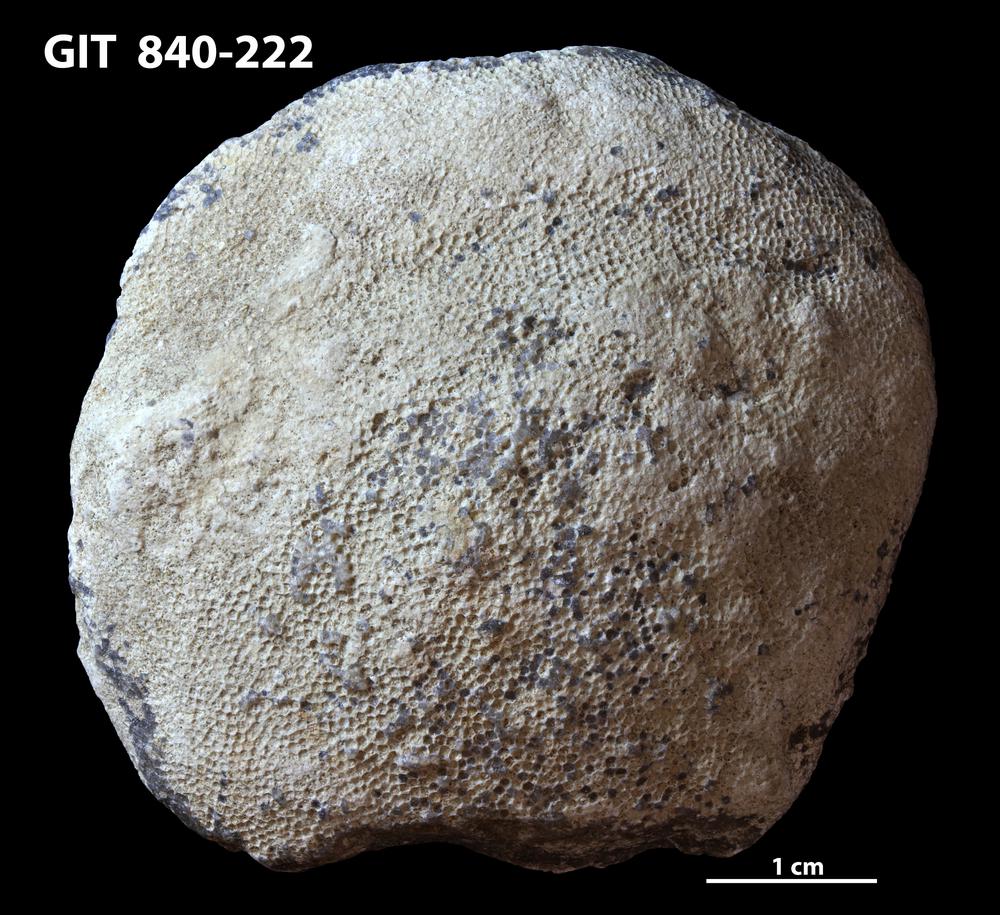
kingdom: Animalia
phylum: Bryozoa
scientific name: Bryozoa
